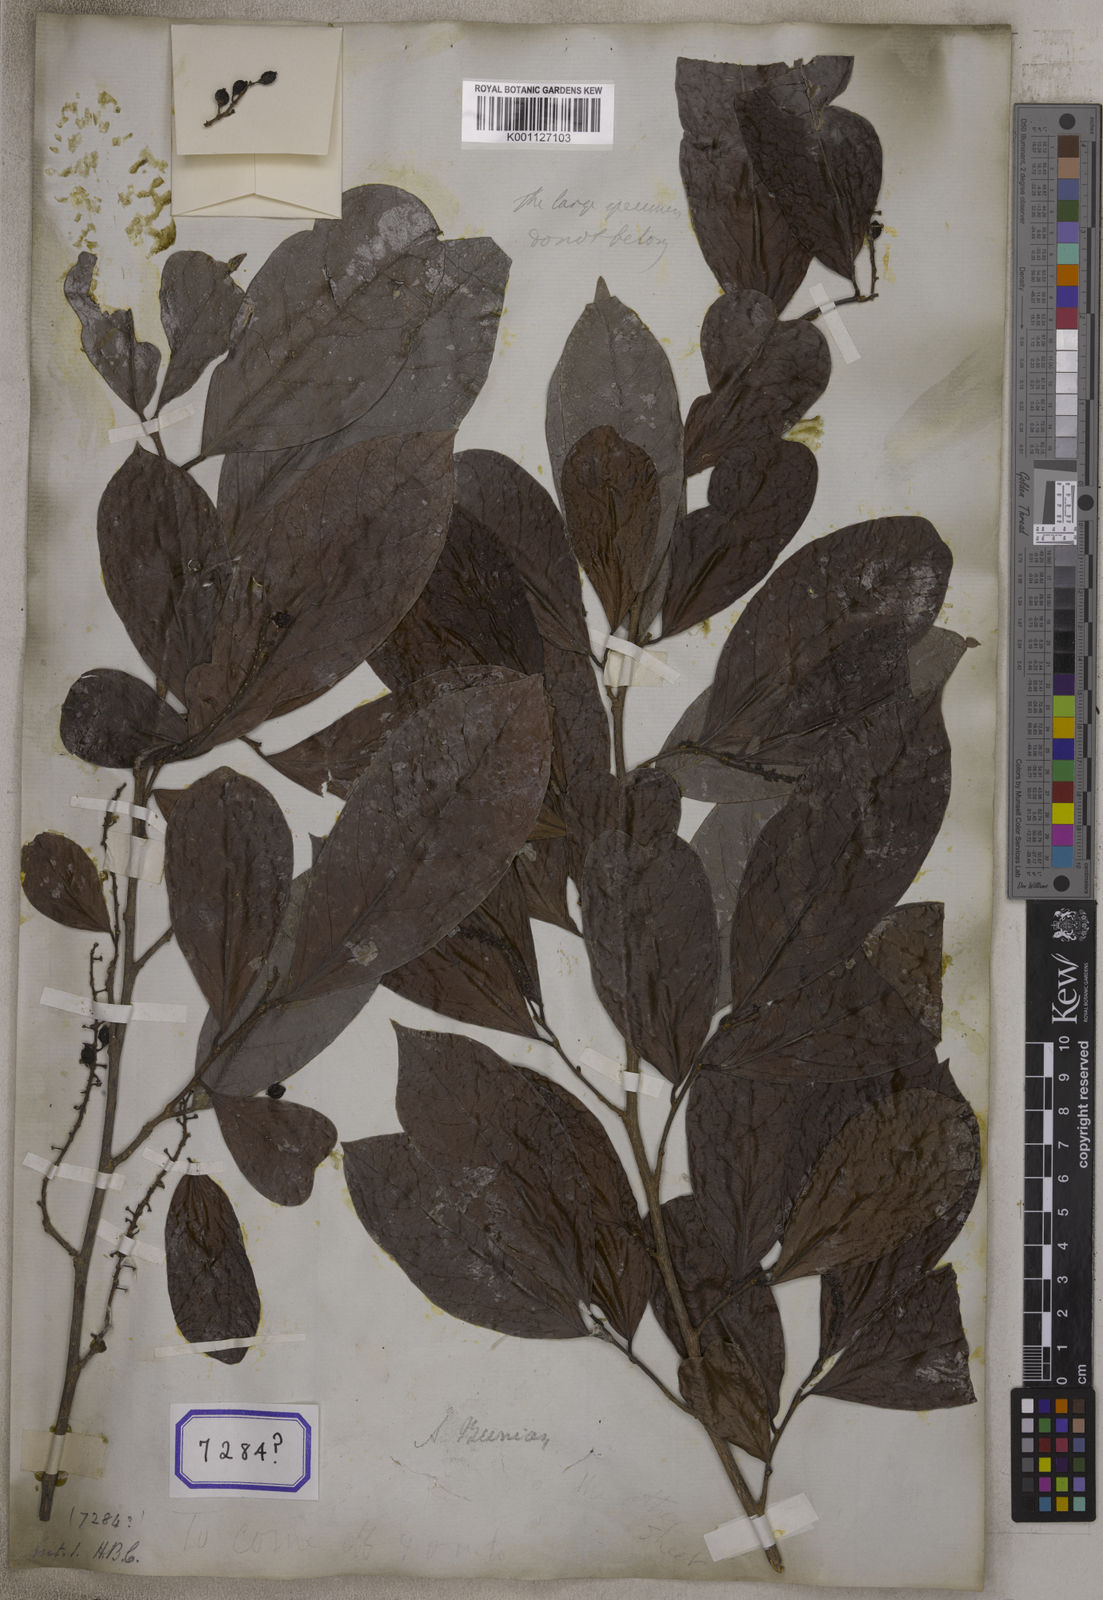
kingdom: Plantae
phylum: Tracheophyta
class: Magnoliopsida
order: Malpighiales
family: Phyllanthaceae
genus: Antidesma
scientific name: Antidesma acidum
